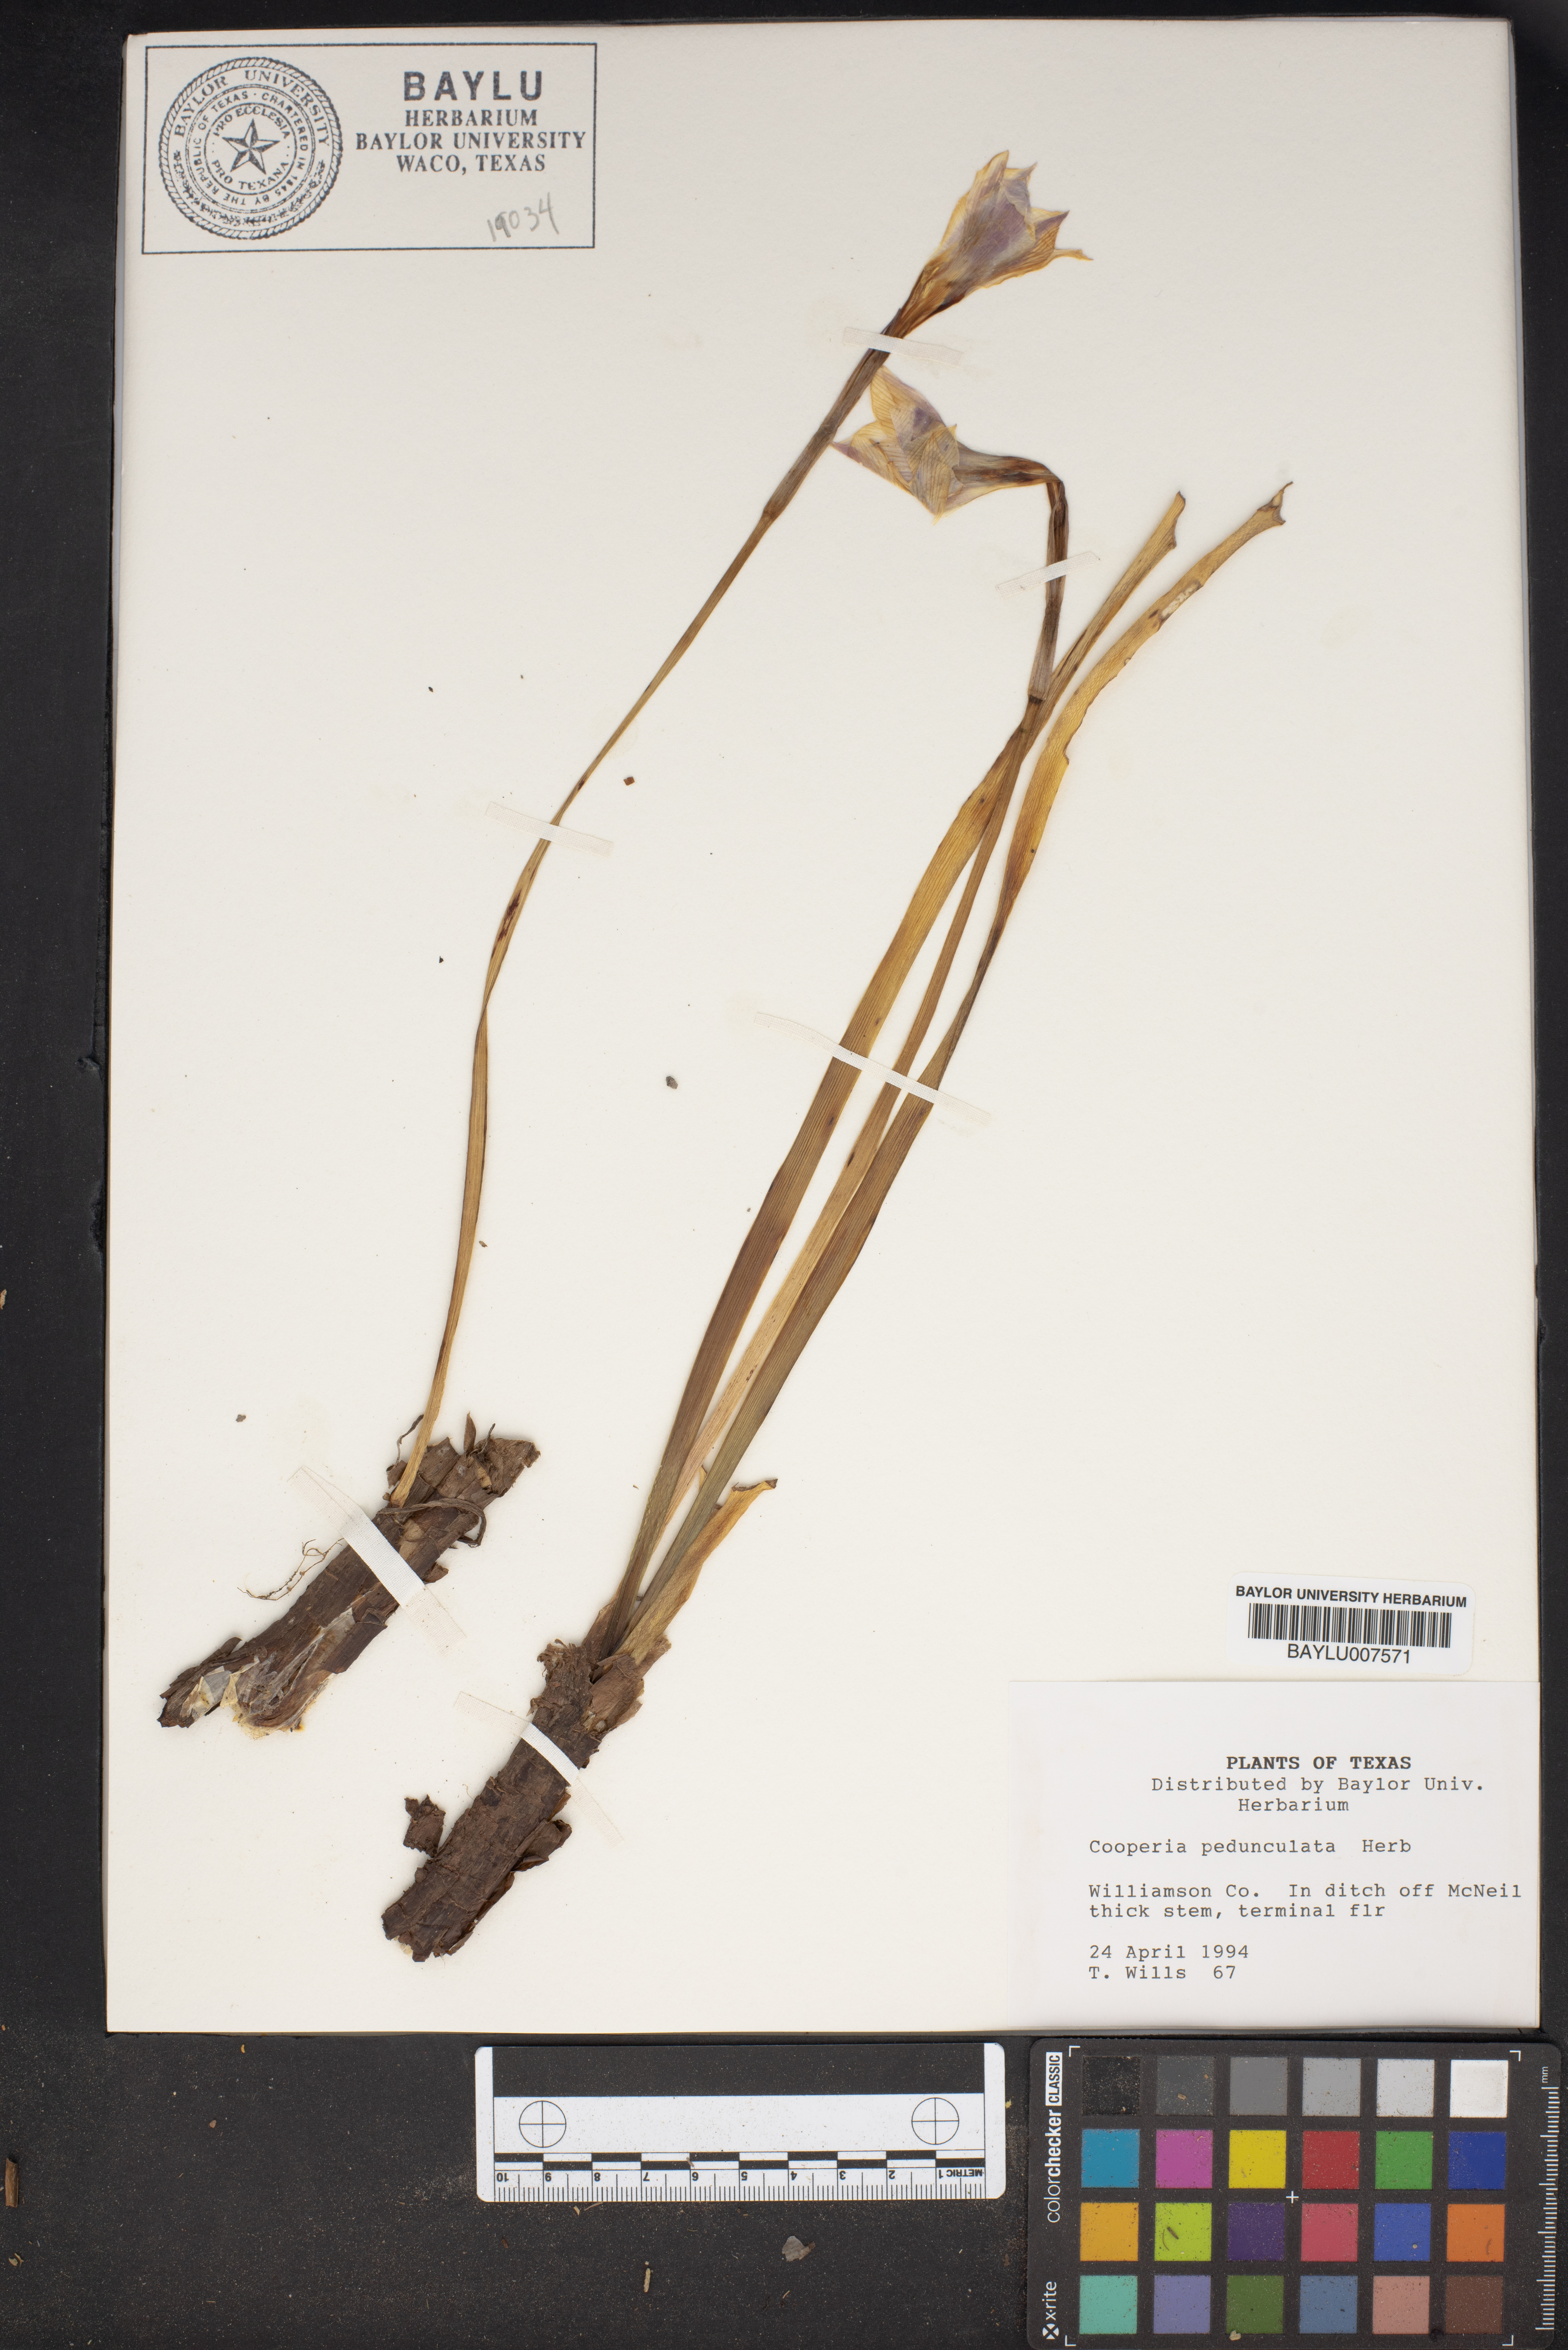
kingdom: Plantae
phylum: Tracheophyta
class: Liliopsida
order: Asparagales
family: Amaryllidaceae
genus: Zephyranthes
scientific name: Zephyranthes drummondii
